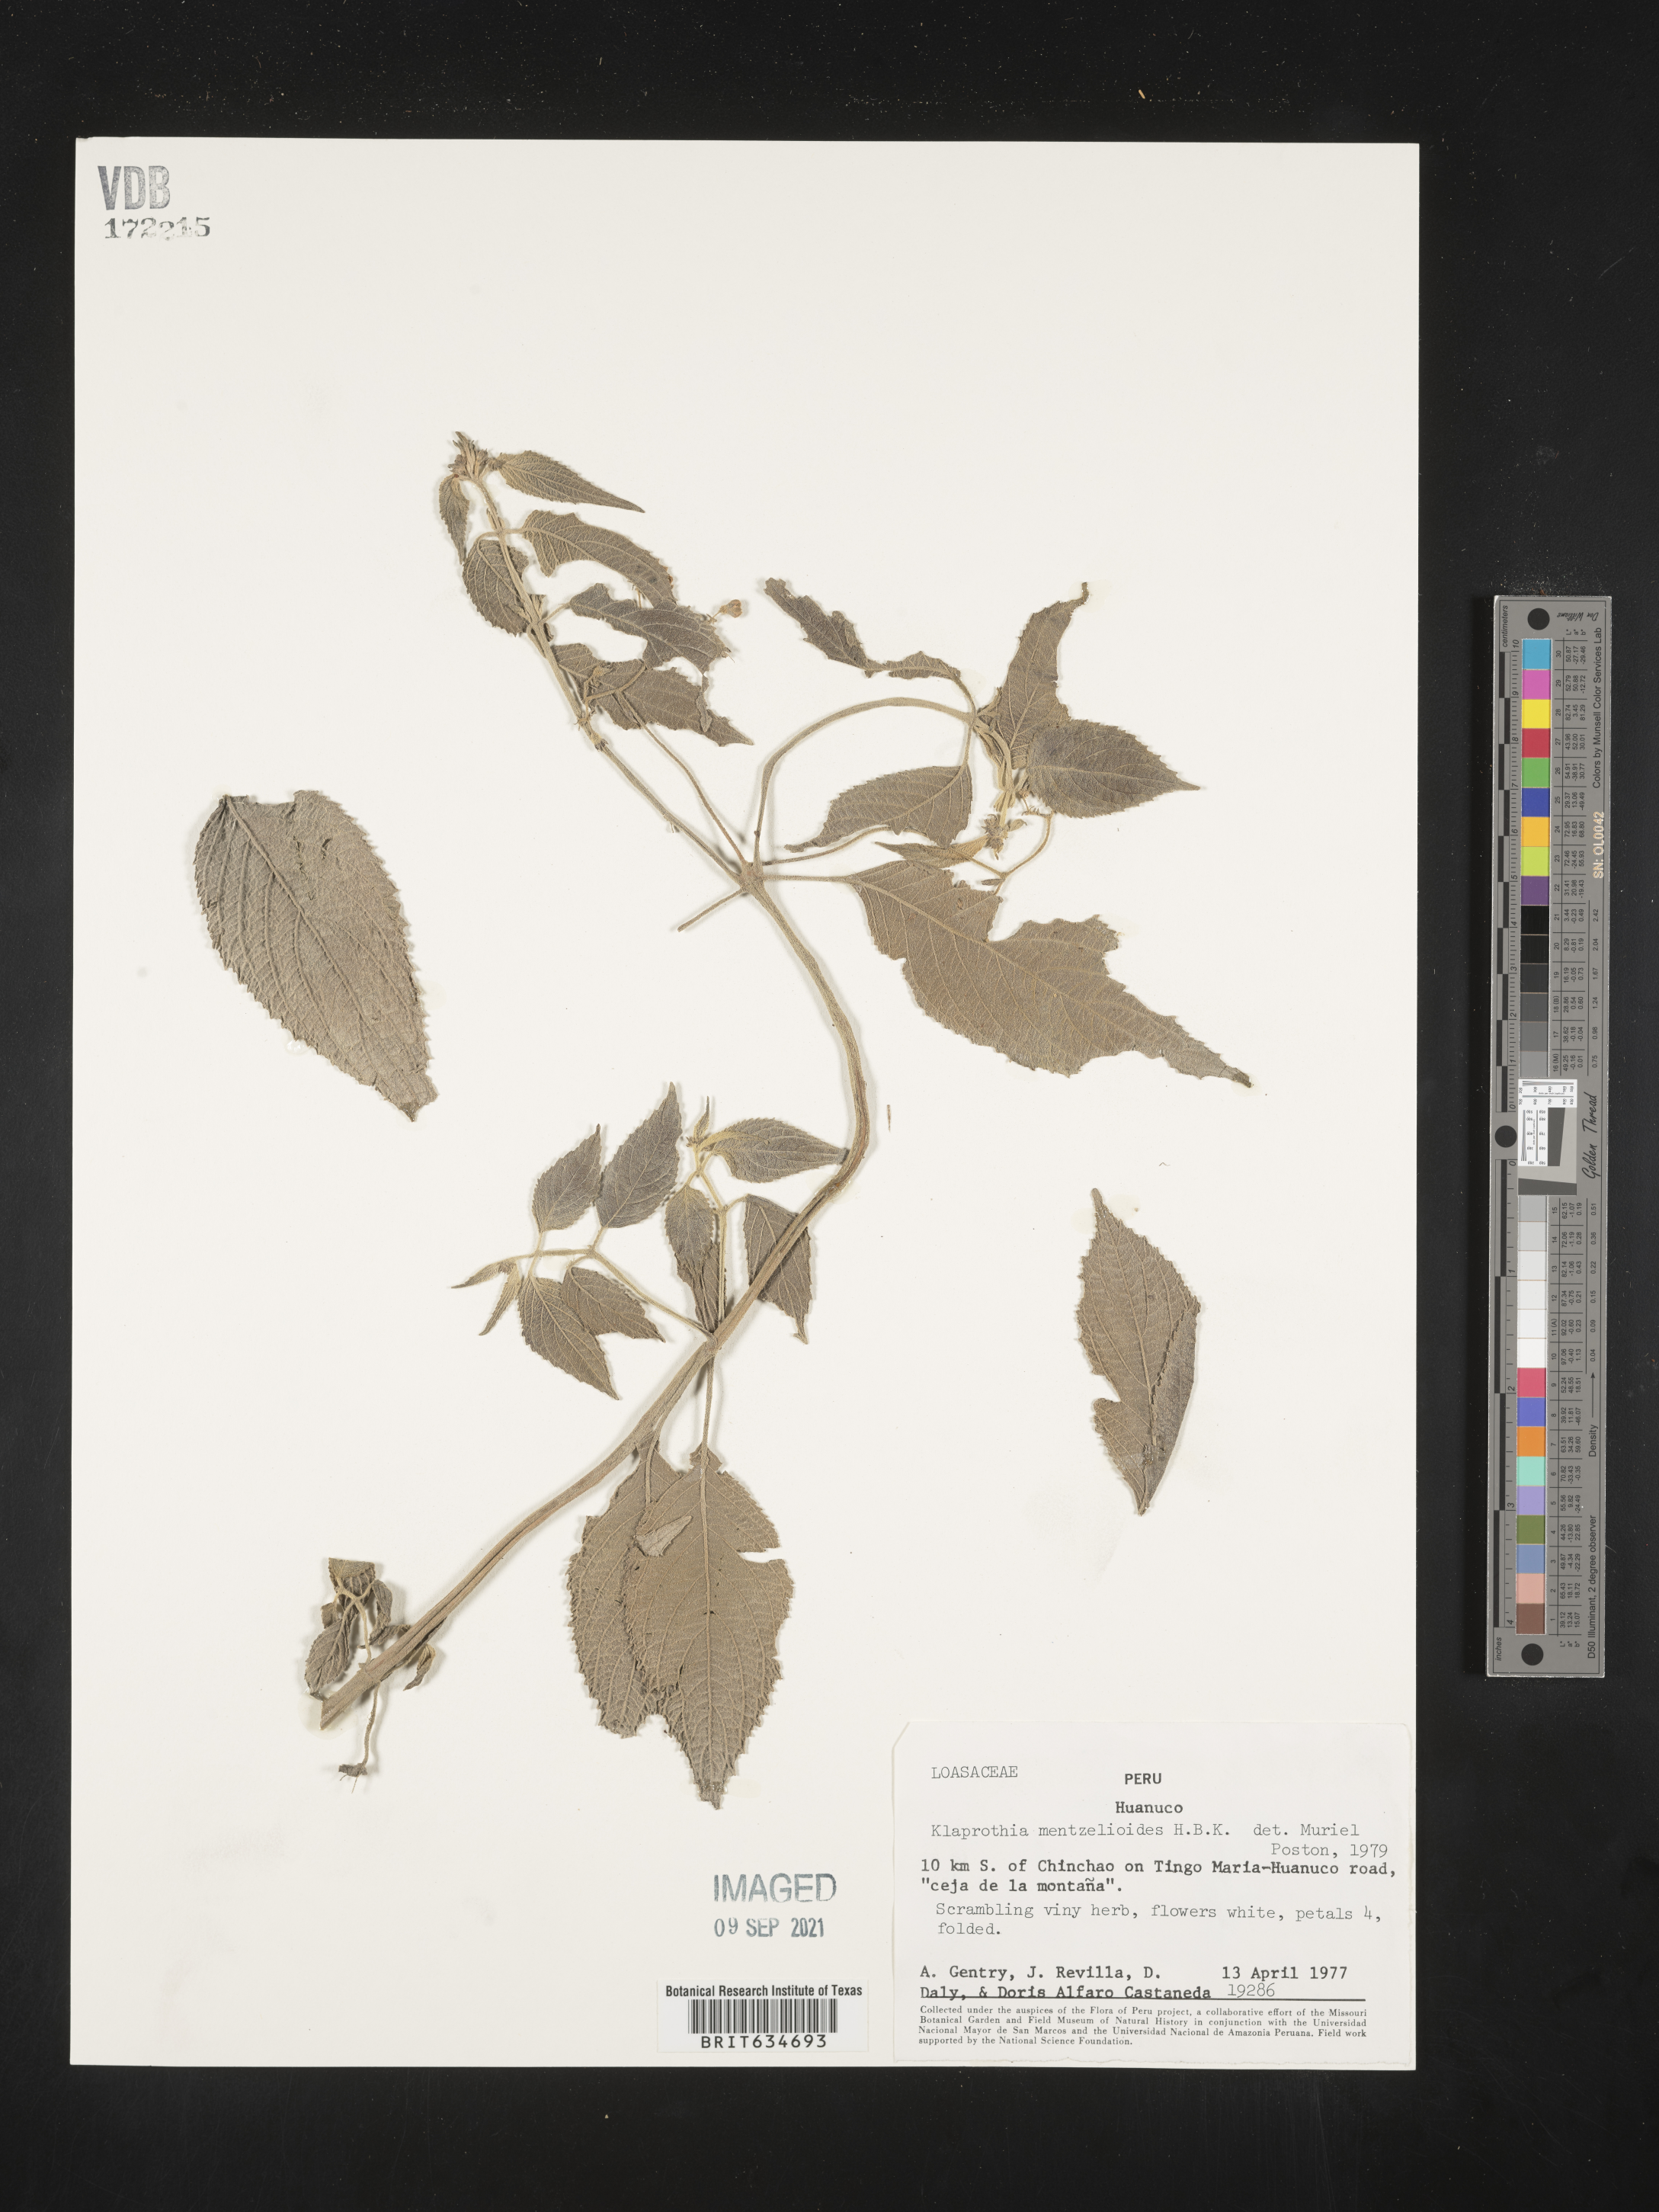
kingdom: Plantae
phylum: Tracheophyta
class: Magnoliopsida
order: Cornales
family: Loasaceae
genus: Klaprothia
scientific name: Klaprothia mentzelioides
